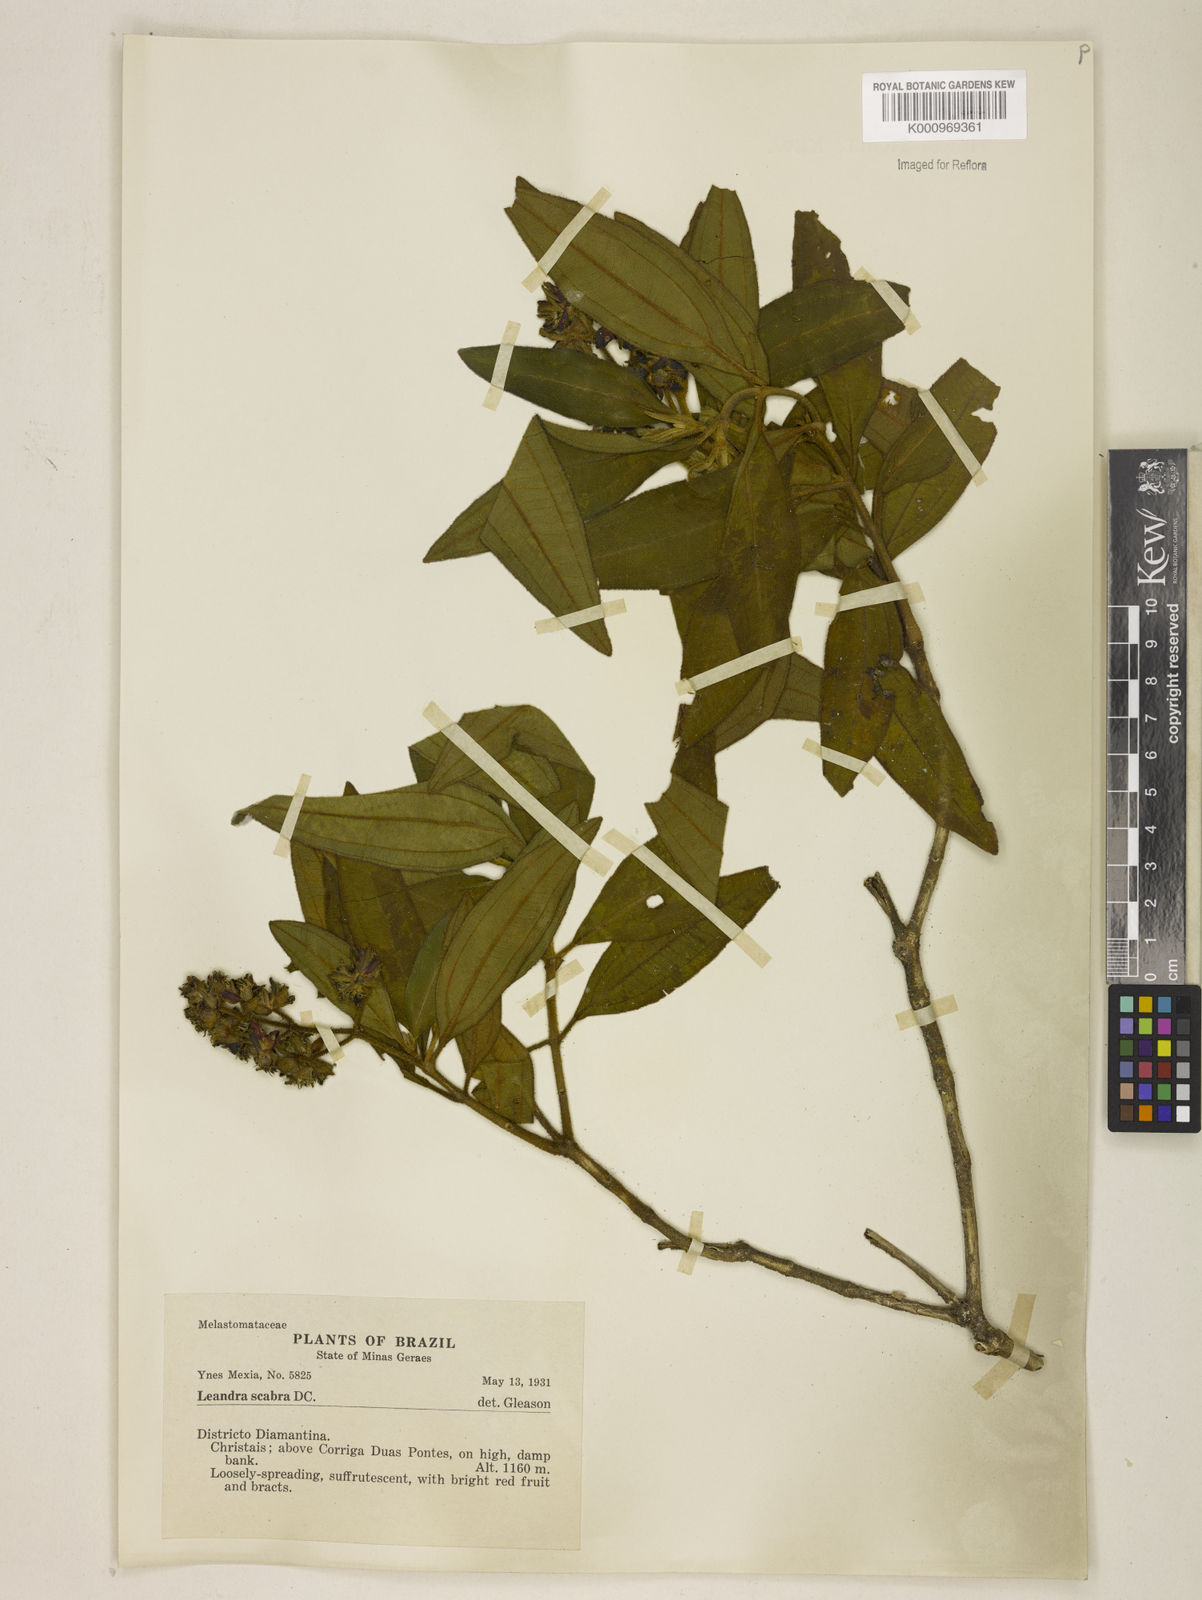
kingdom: Plantae
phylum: Tracheophyta
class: Magnoliopsida
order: Myrtales
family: Melastomataceae
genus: Miconia
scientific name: Miconia melastomoides
